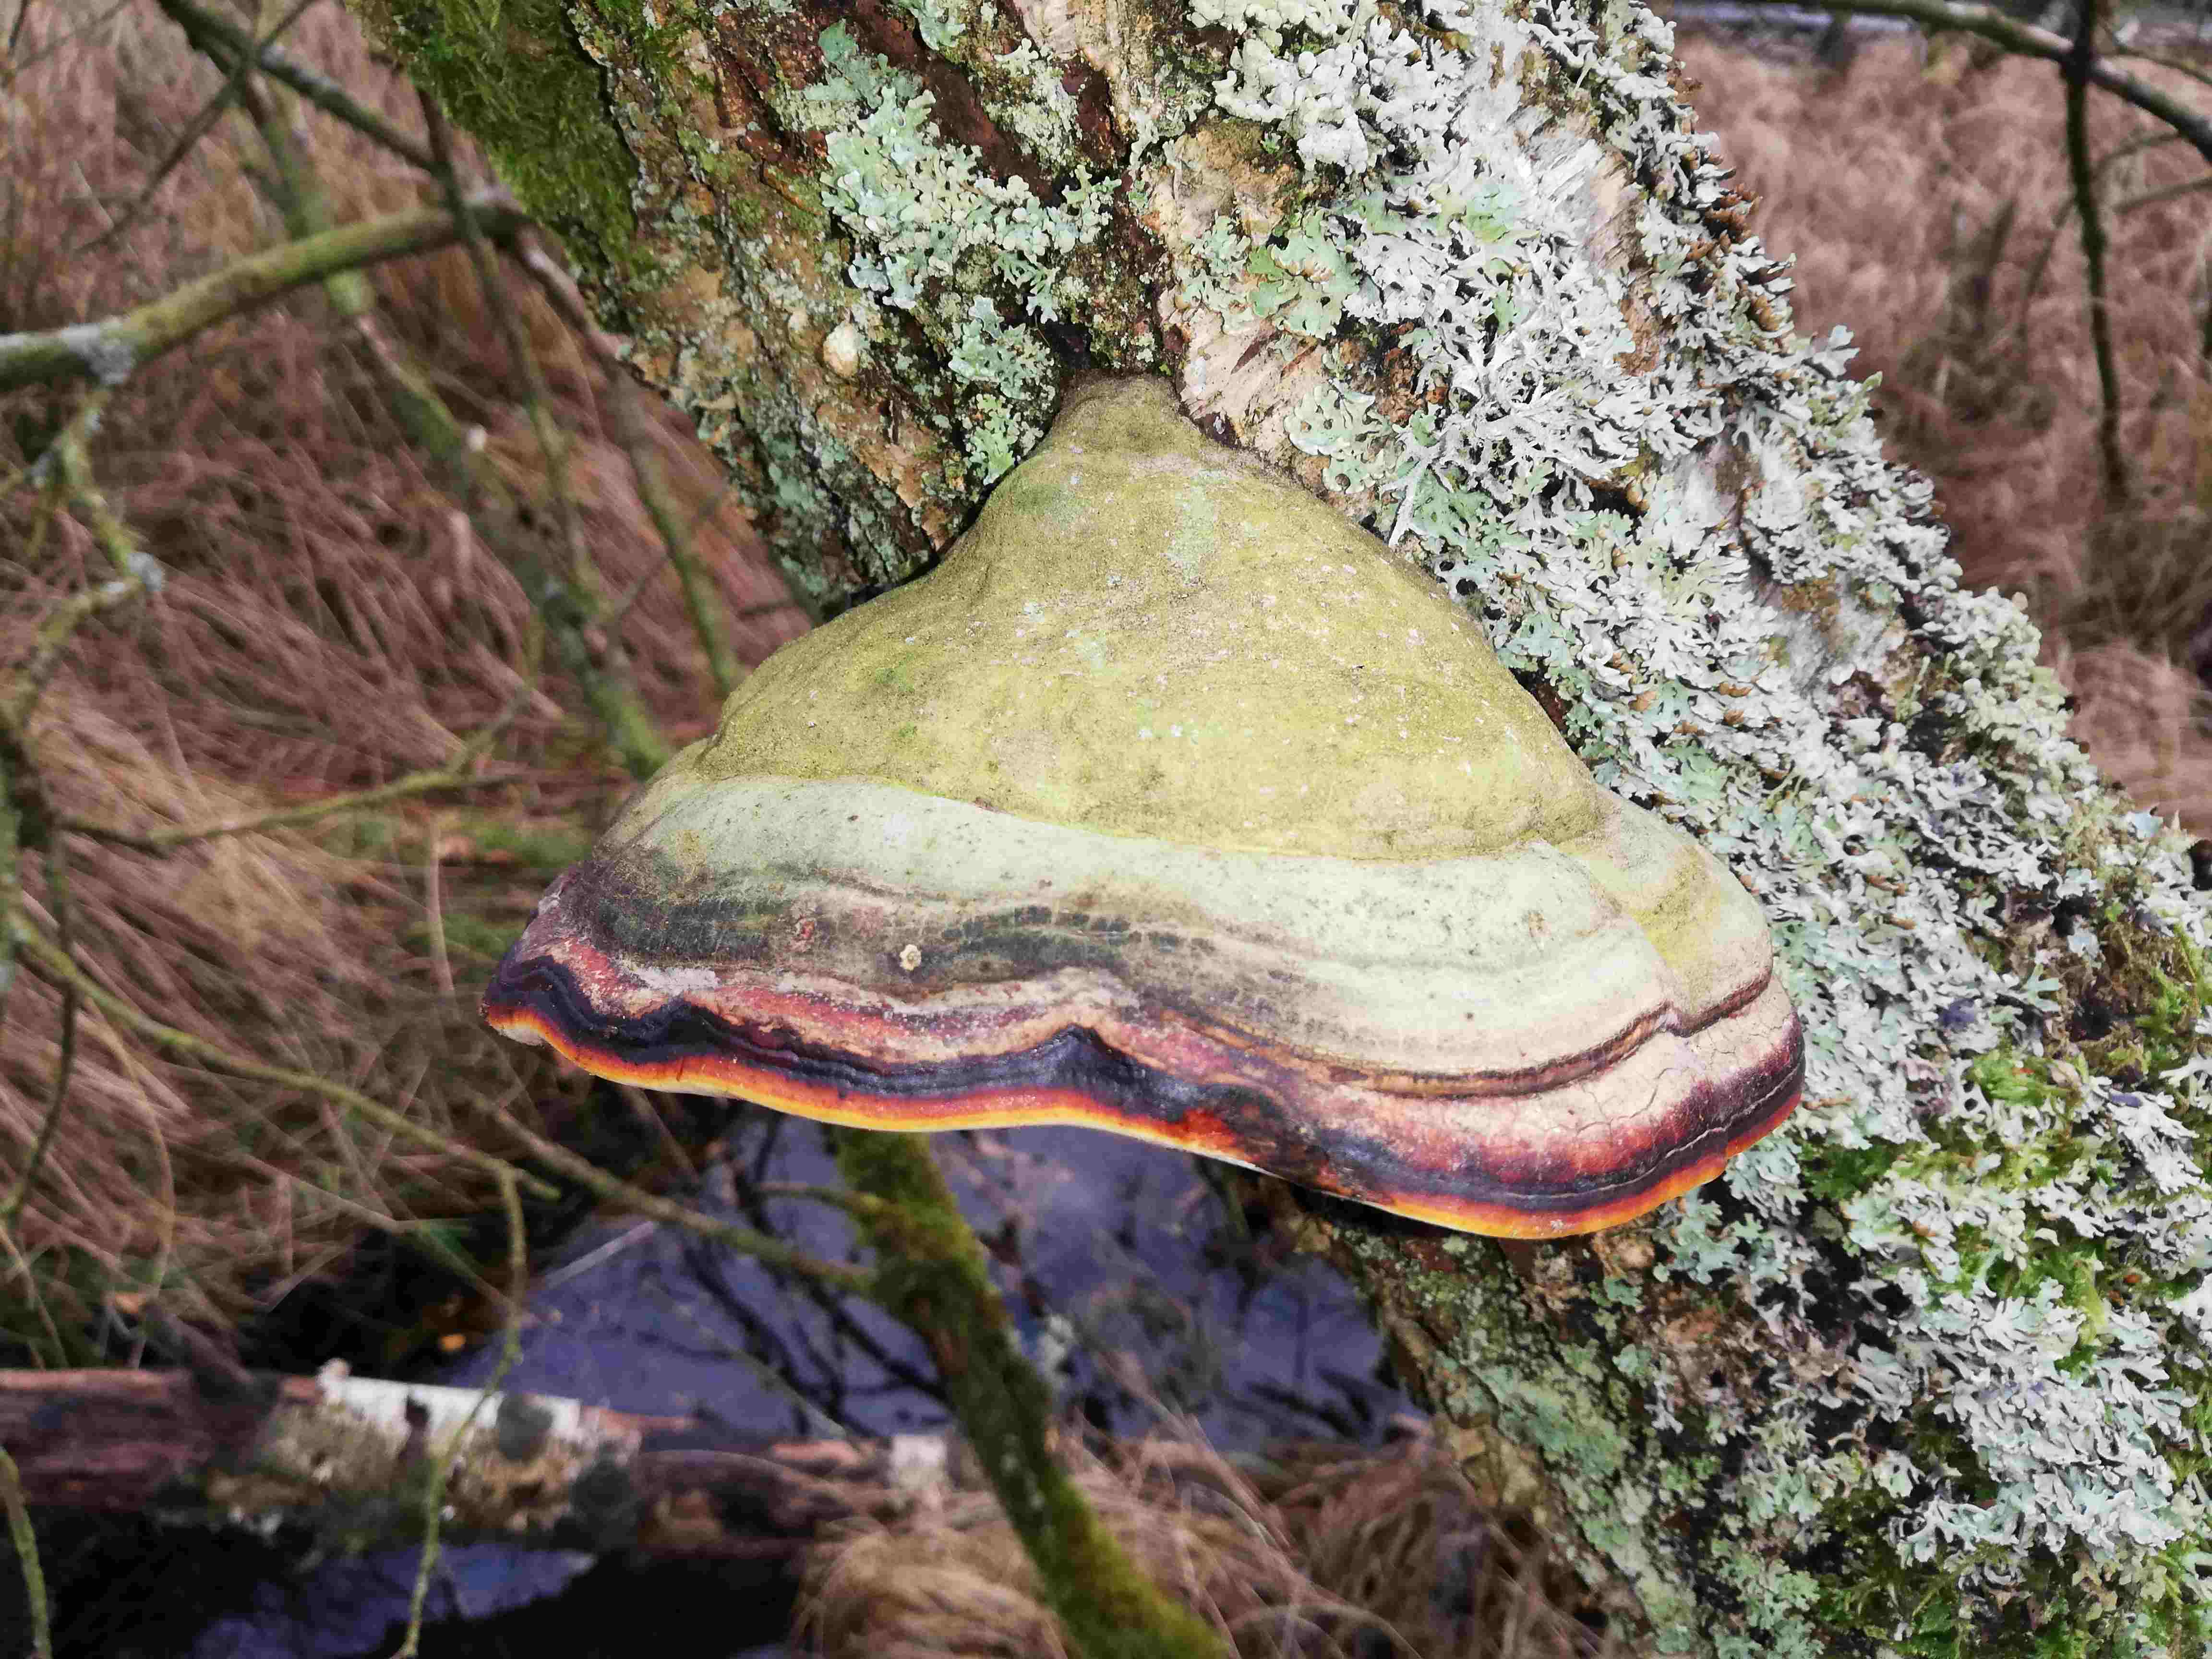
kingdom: Fungi
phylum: Basidiomycota
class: Agaricomycetes
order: Polyporales
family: Fomitopsidaceae
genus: Fomitopsis
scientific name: Fomitopsis pinicola
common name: randbæltet hovporesvamp
